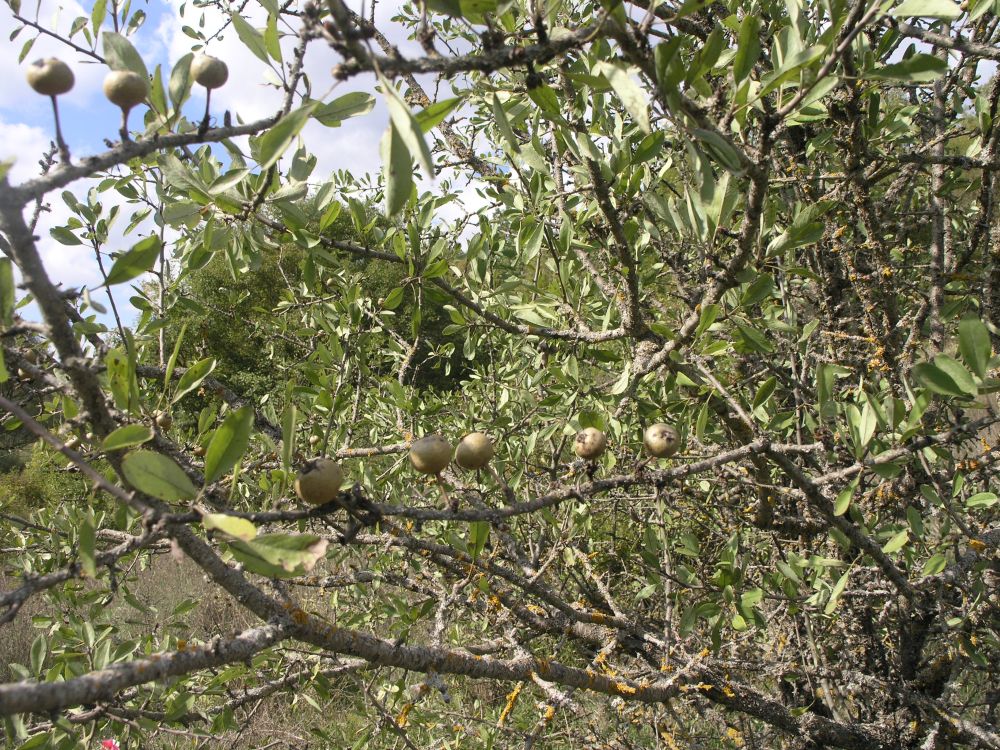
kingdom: Plantae
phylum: Tracheophyta
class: Magnoliopsida
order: Rosales
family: Rosaceae
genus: Pyrus
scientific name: Pyrus spinosa
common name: Almond-leaf pear
